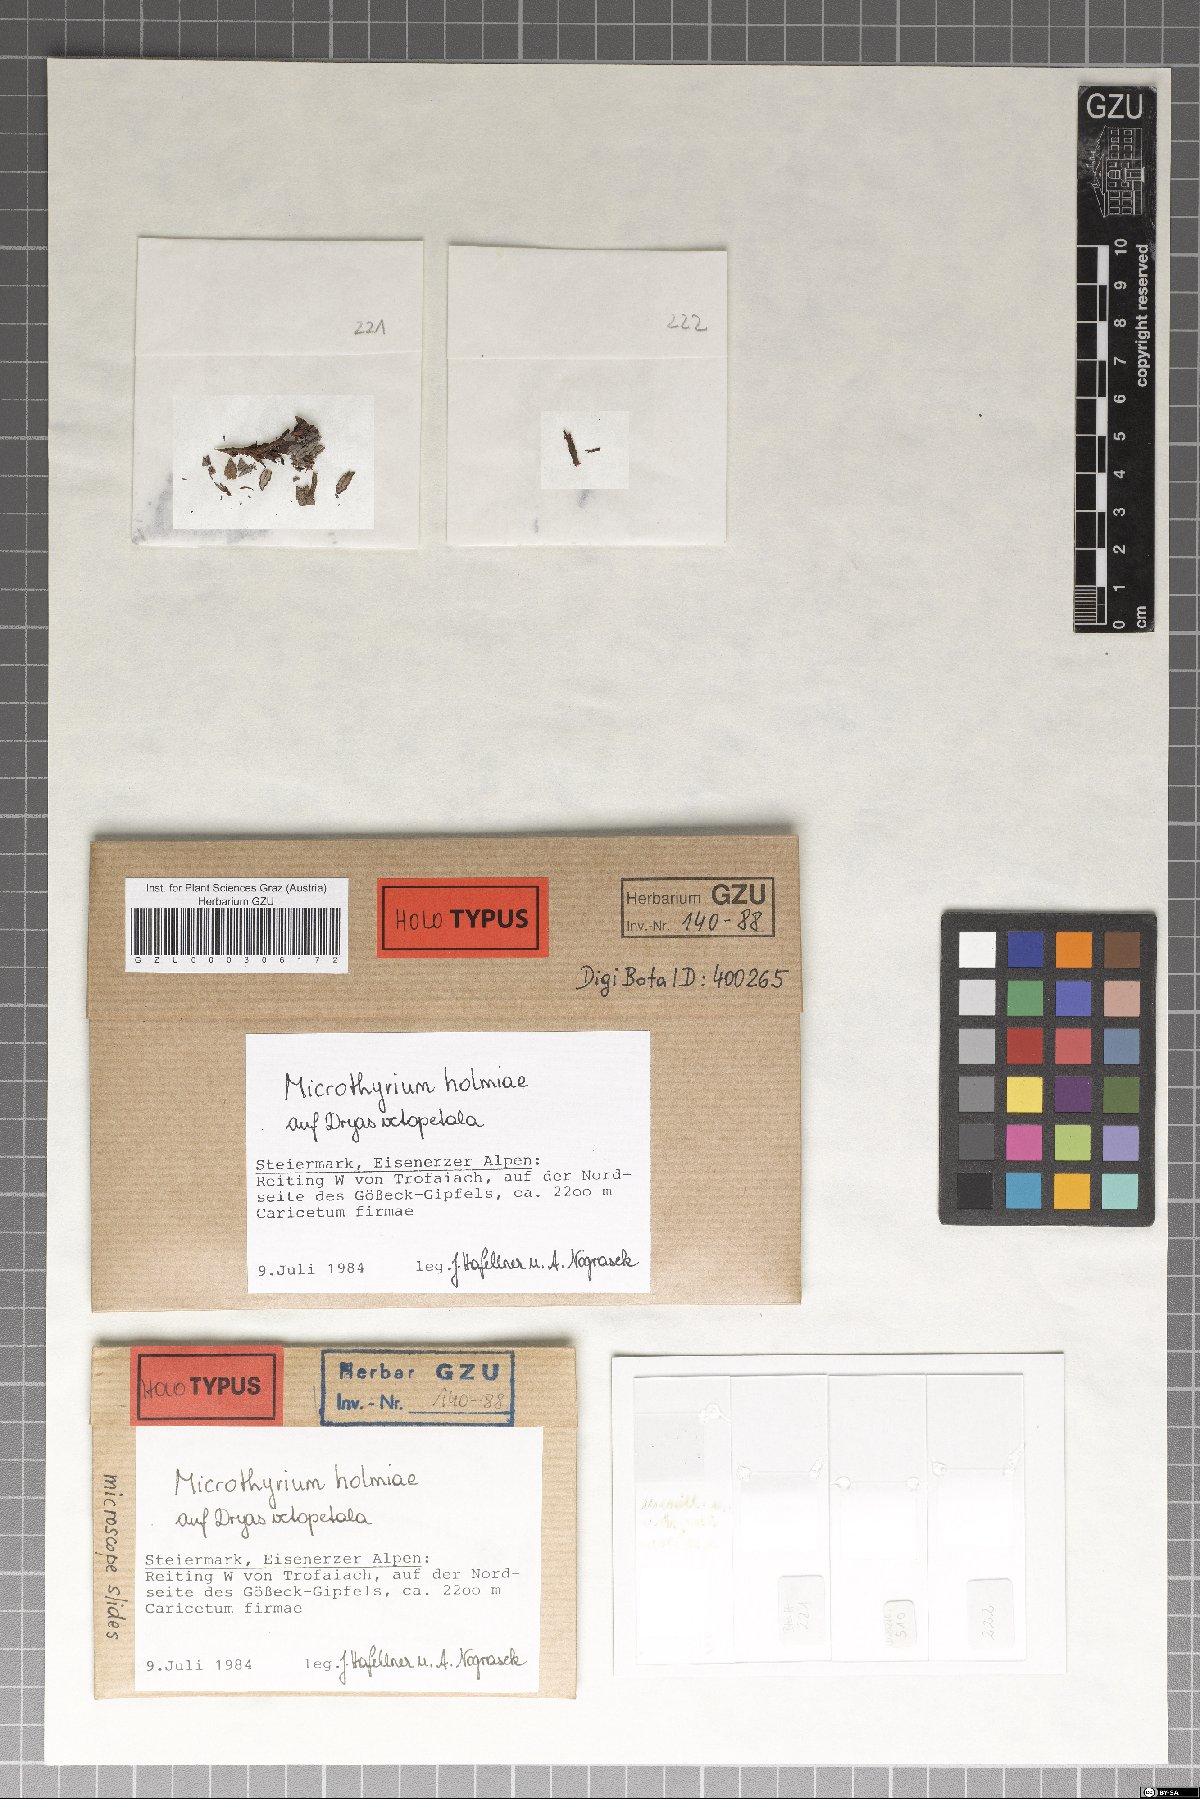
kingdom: Fungi
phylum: Ascomycota
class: Dothideomycetes
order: Microthyriales
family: Microthyriaceae
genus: Microthyrium
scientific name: Microthyrium holmiae
